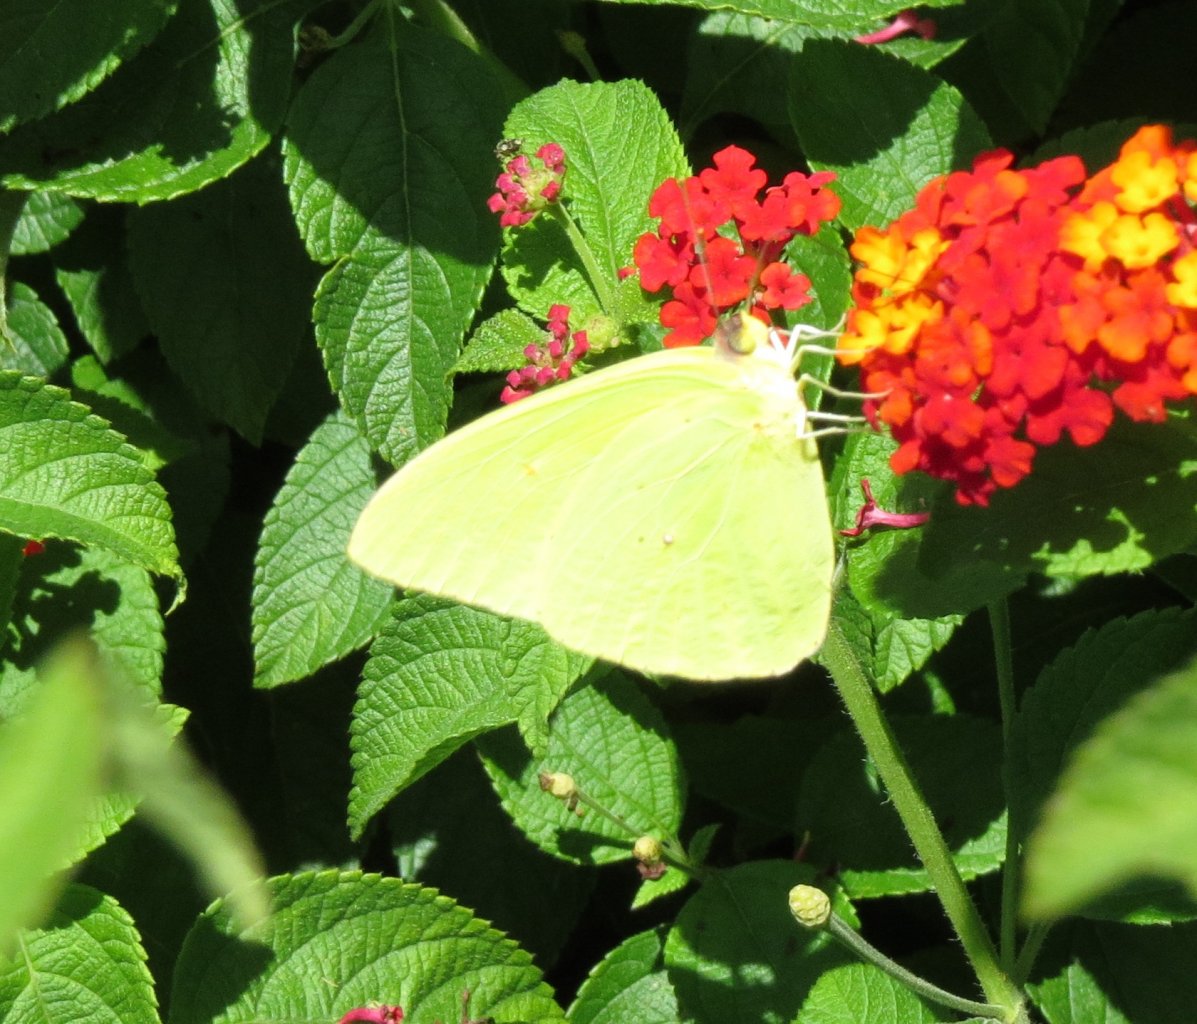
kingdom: Animalia
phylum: Arthropoda
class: Insecta
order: Lepidoptera
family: Pieridae
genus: Phoebis
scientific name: Phoebis sennae
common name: Cloudless Sulphur
